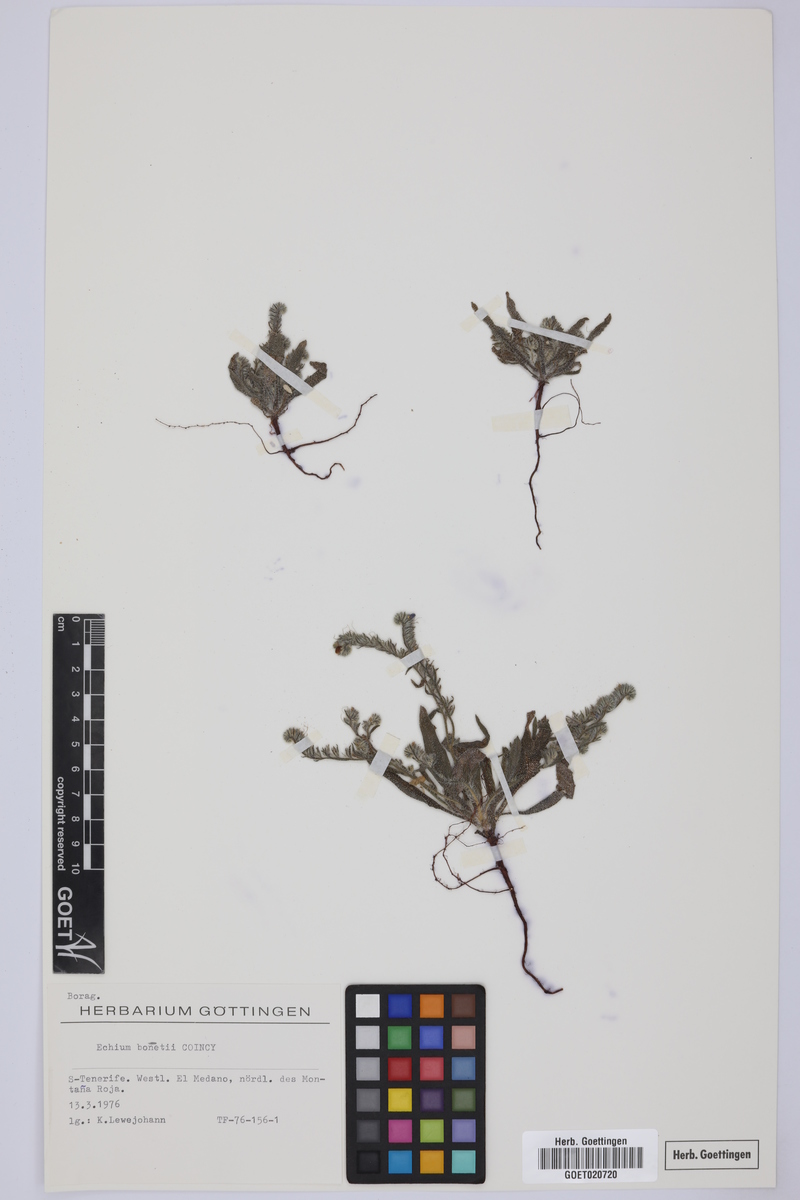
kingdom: Plantae
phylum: Tracheophyta
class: Magnoliopsida
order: Boraginales
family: Boraginaceae
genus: Echium
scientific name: Echium bonnetii
